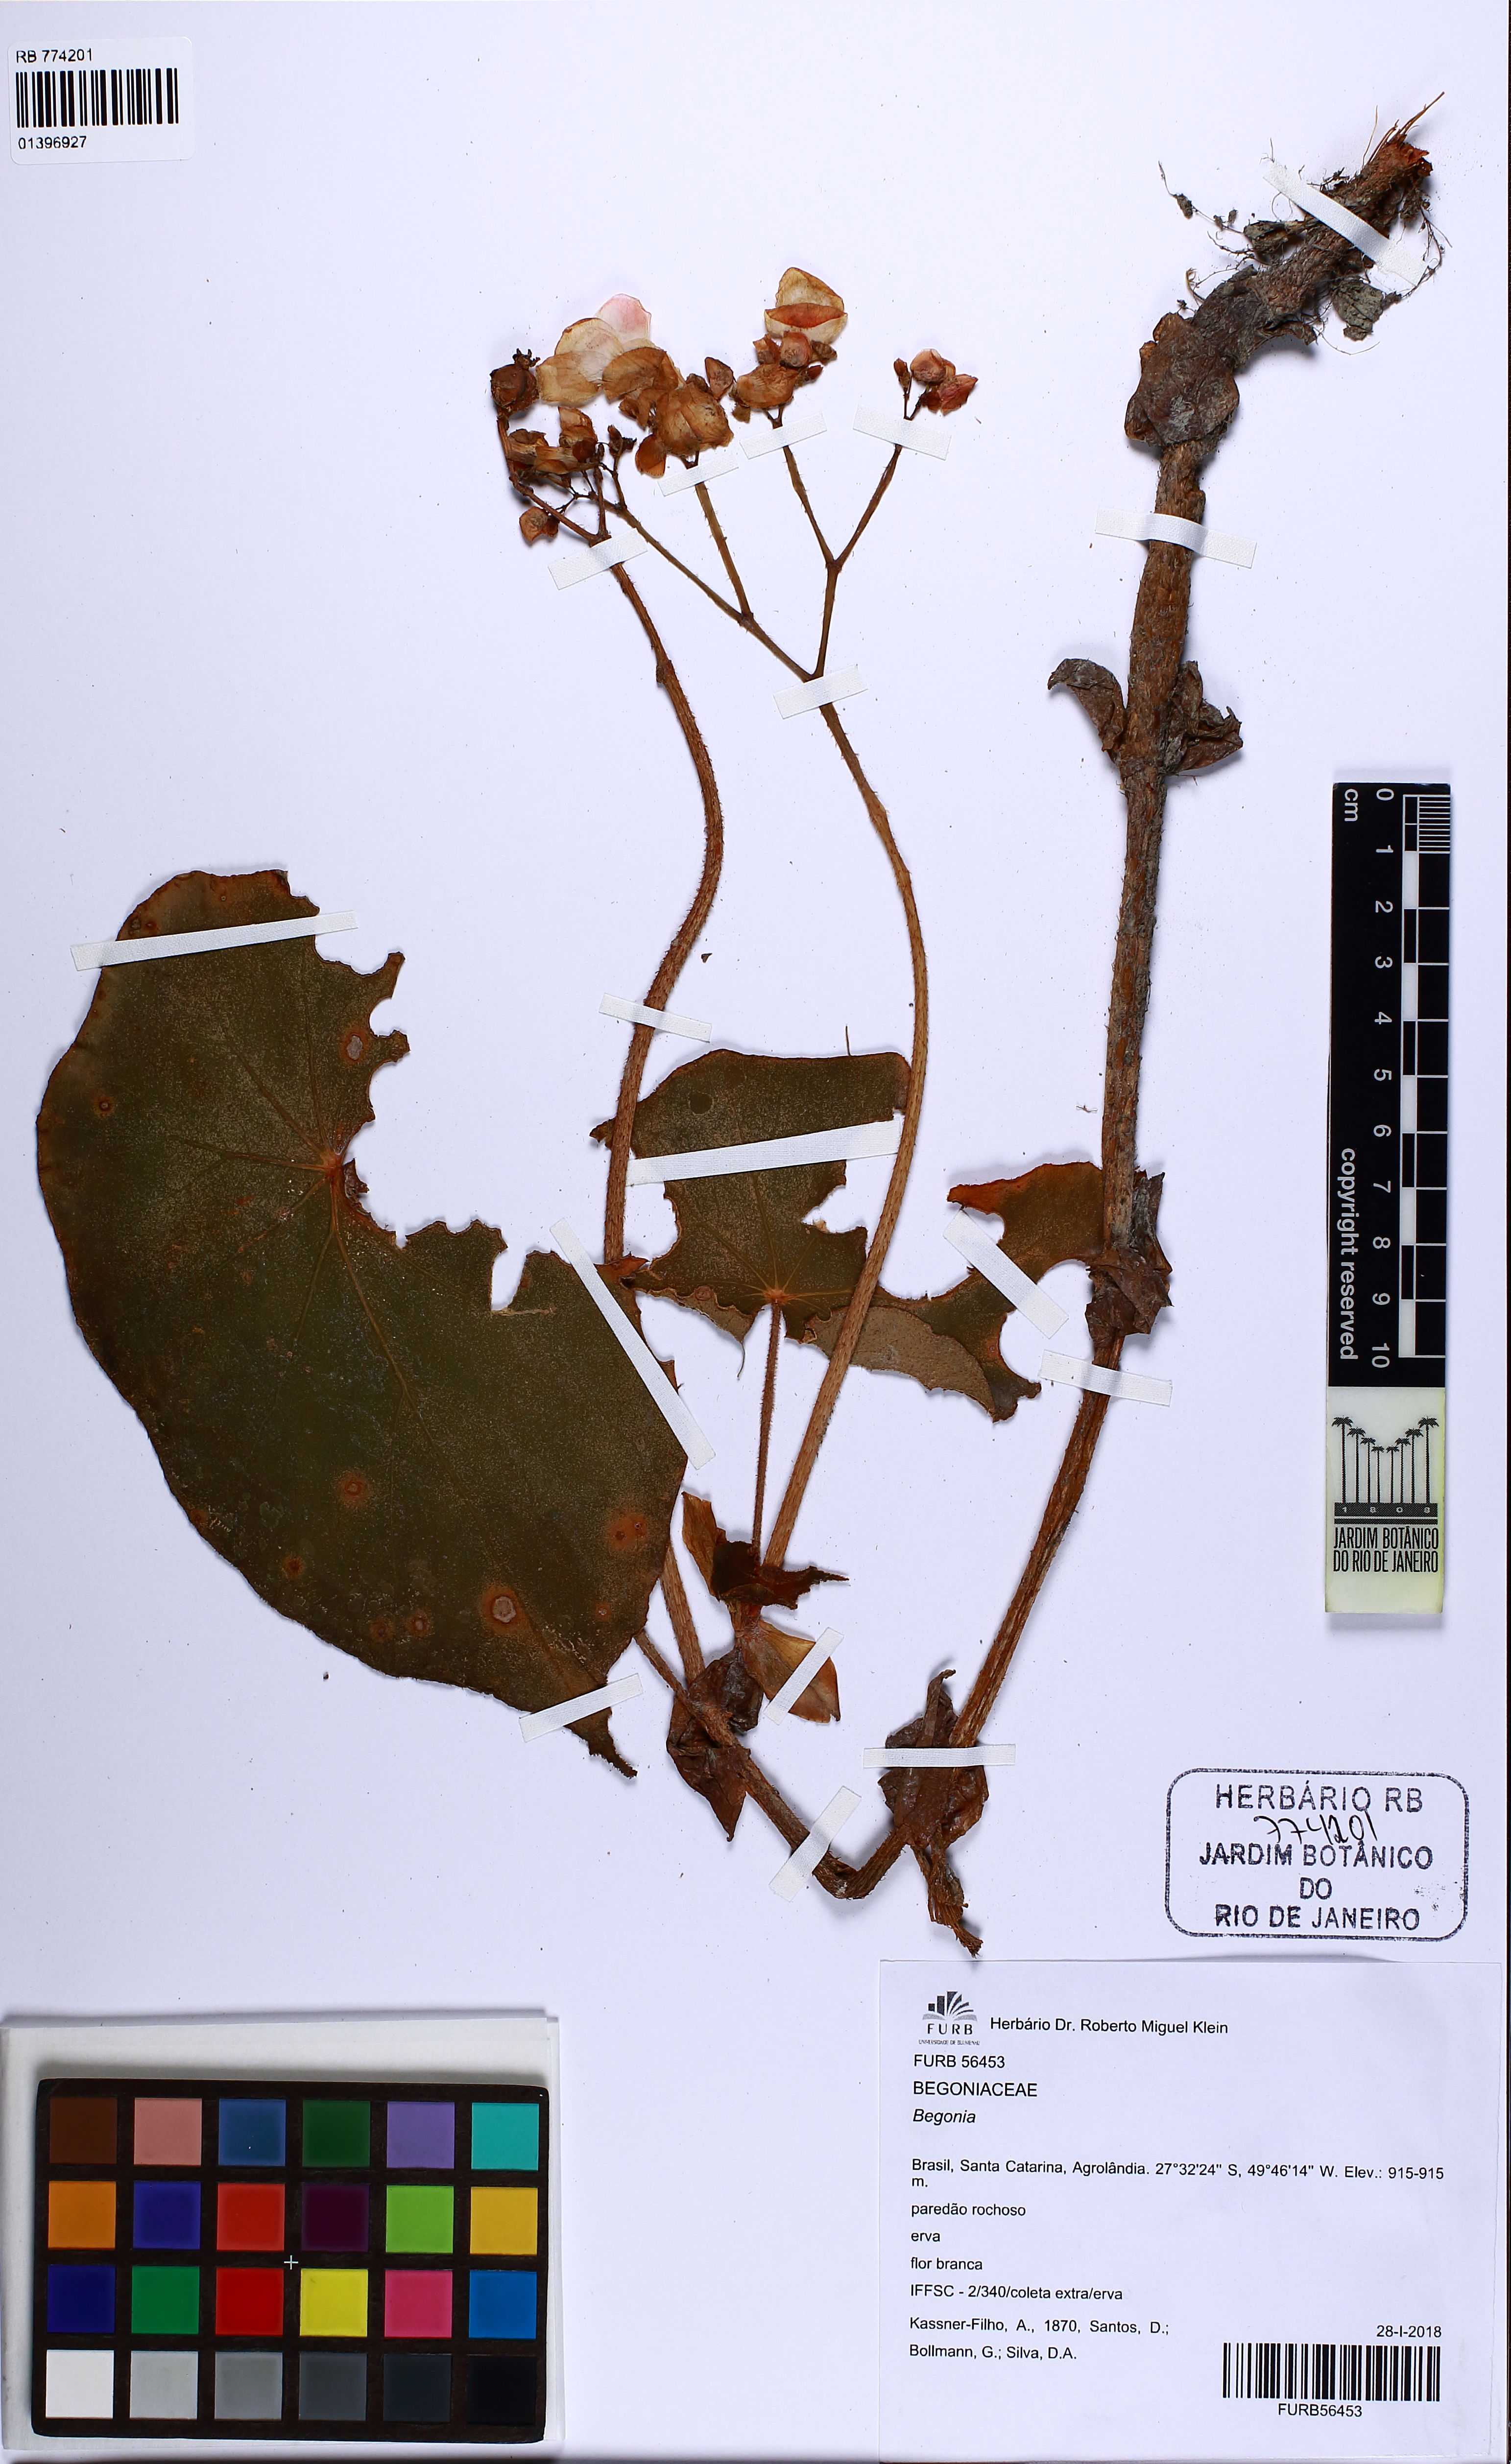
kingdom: Plantae
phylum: Tracheophyta
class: Magnoliopsida
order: Cucurbitales
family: Begoniaceae
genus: Begonia
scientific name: Begonia calvescens
